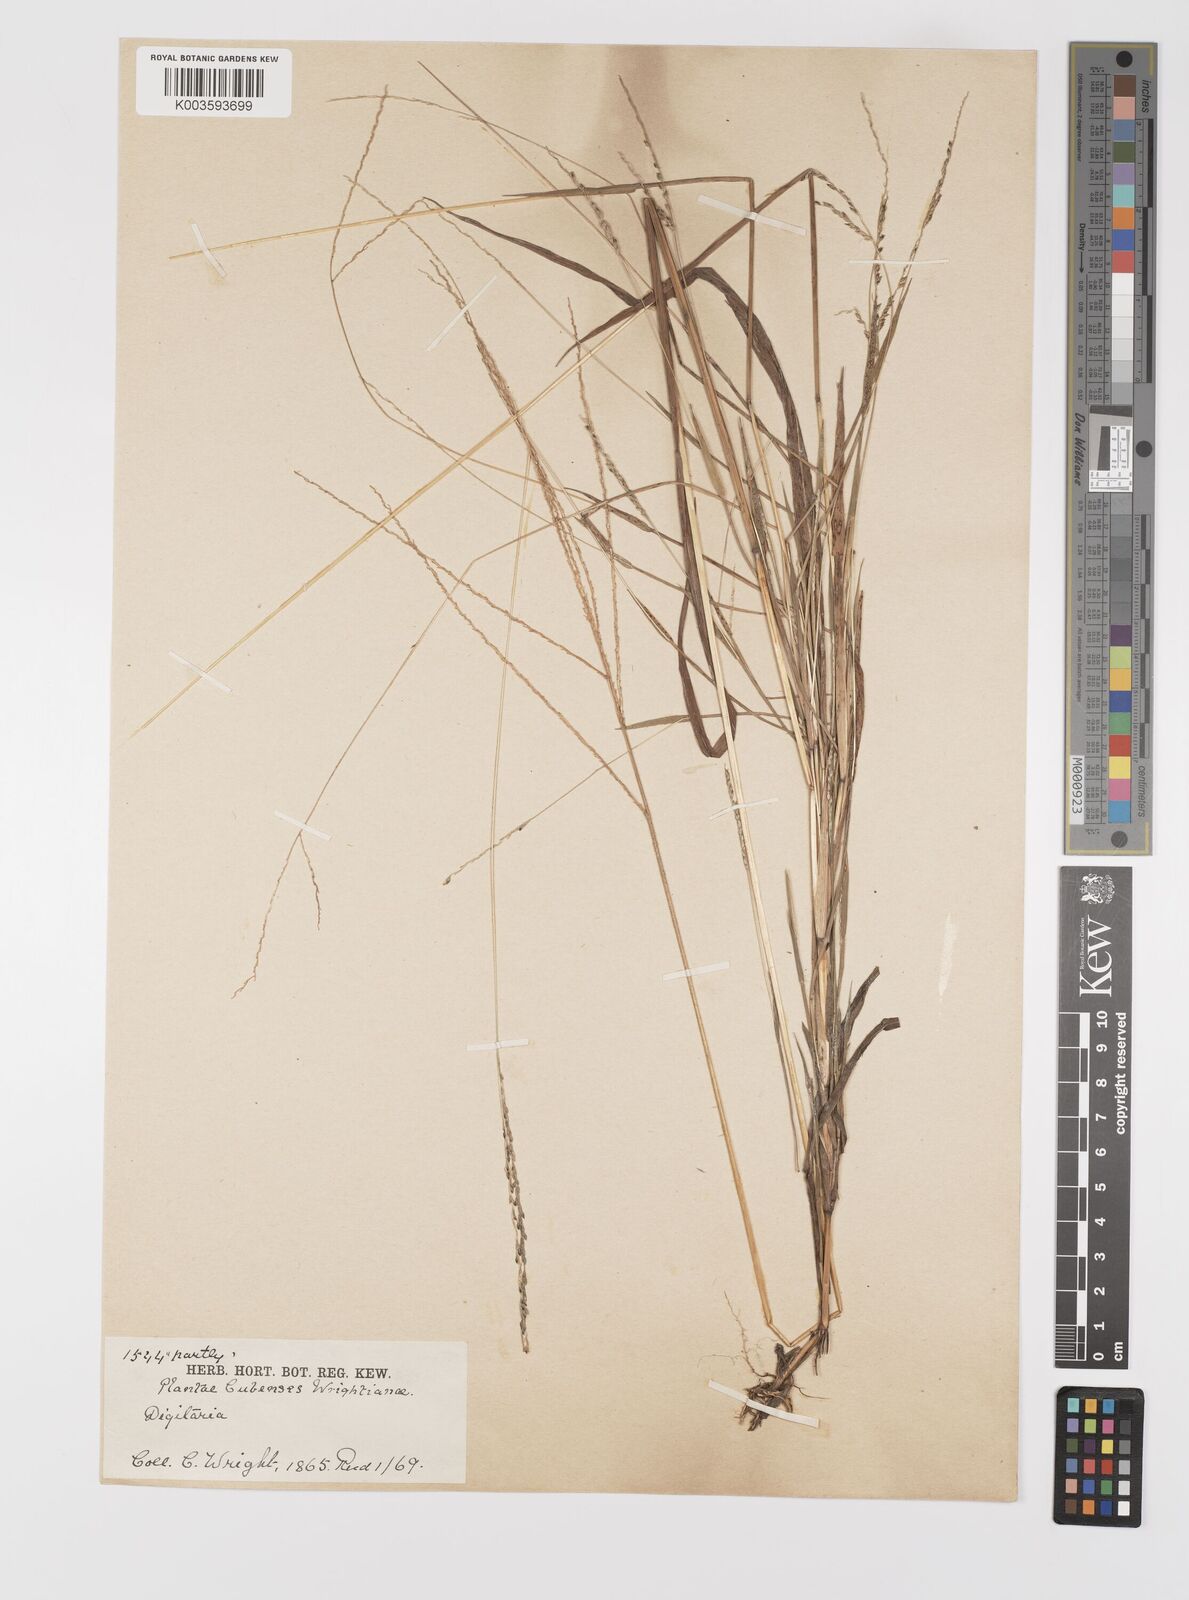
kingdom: Plantae
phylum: Tracheophyta
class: Liliopsida
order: Poales
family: Poaceae
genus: Digitaria
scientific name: Digitaria argillacea
